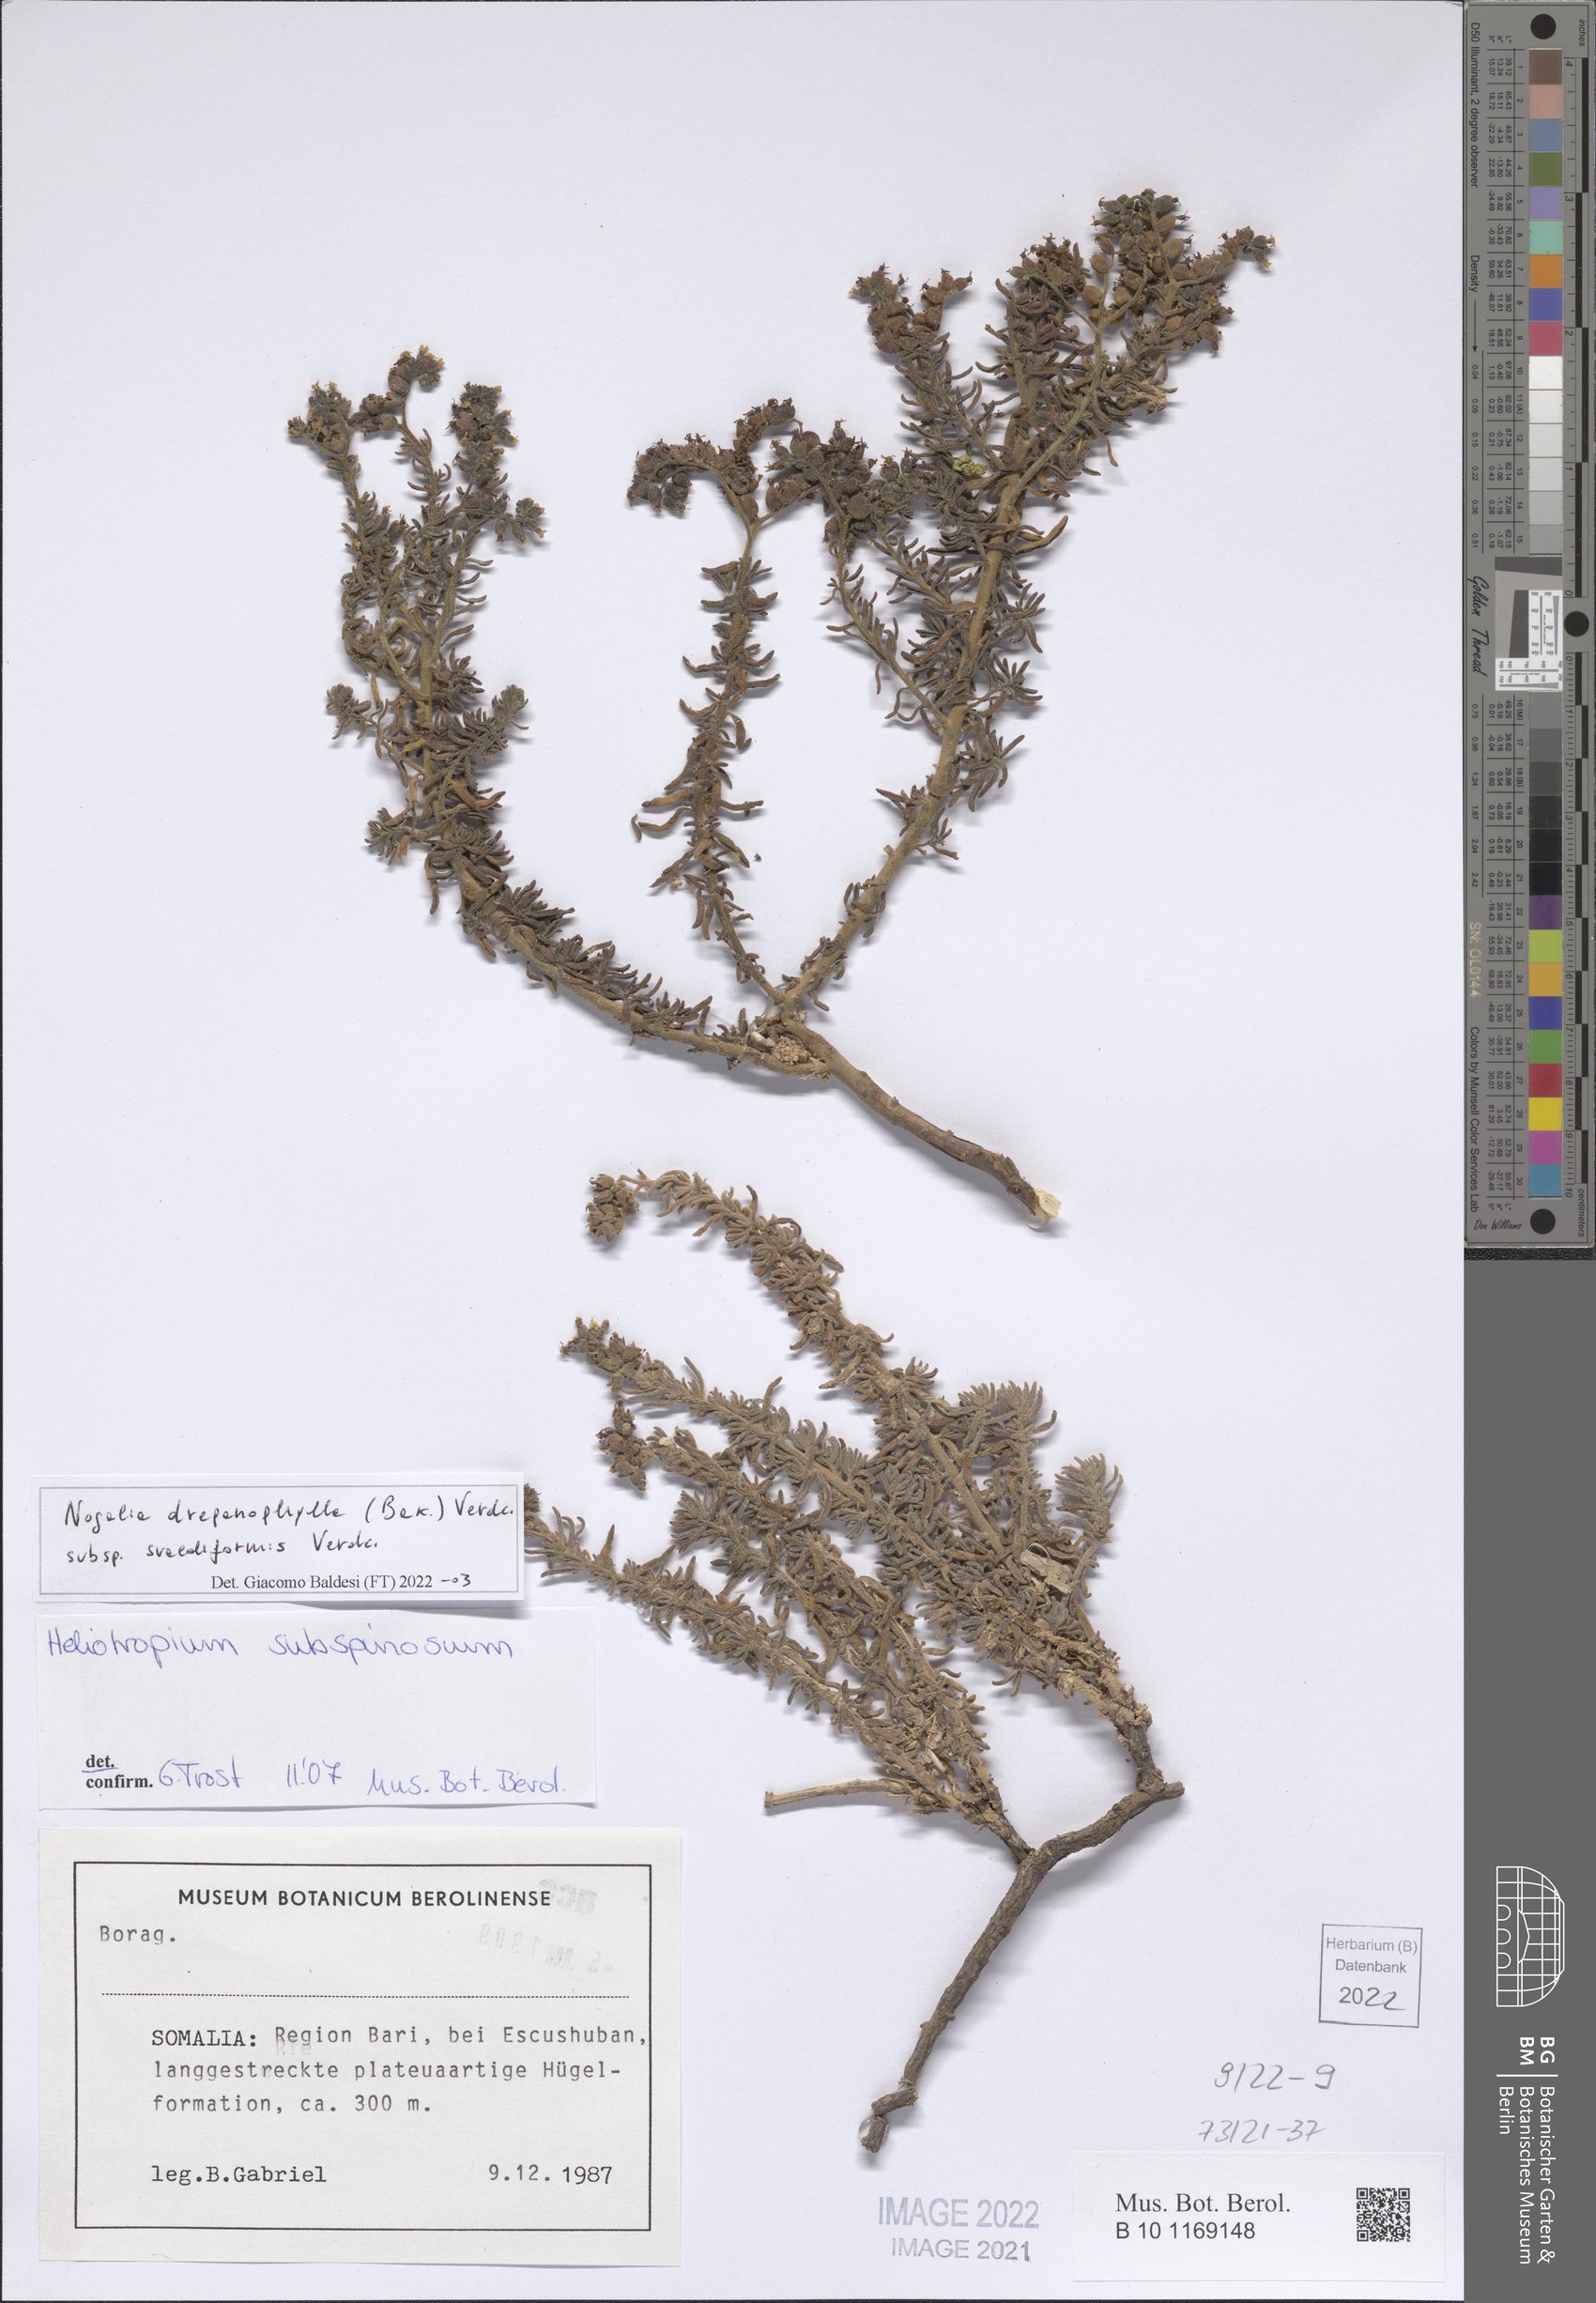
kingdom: Plantae
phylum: Tracheophyta
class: Magnoliopsida
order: Boraginales
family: Heliotropiaceae
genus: Heliotropium
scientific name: Heliotropium drepanophyllum
